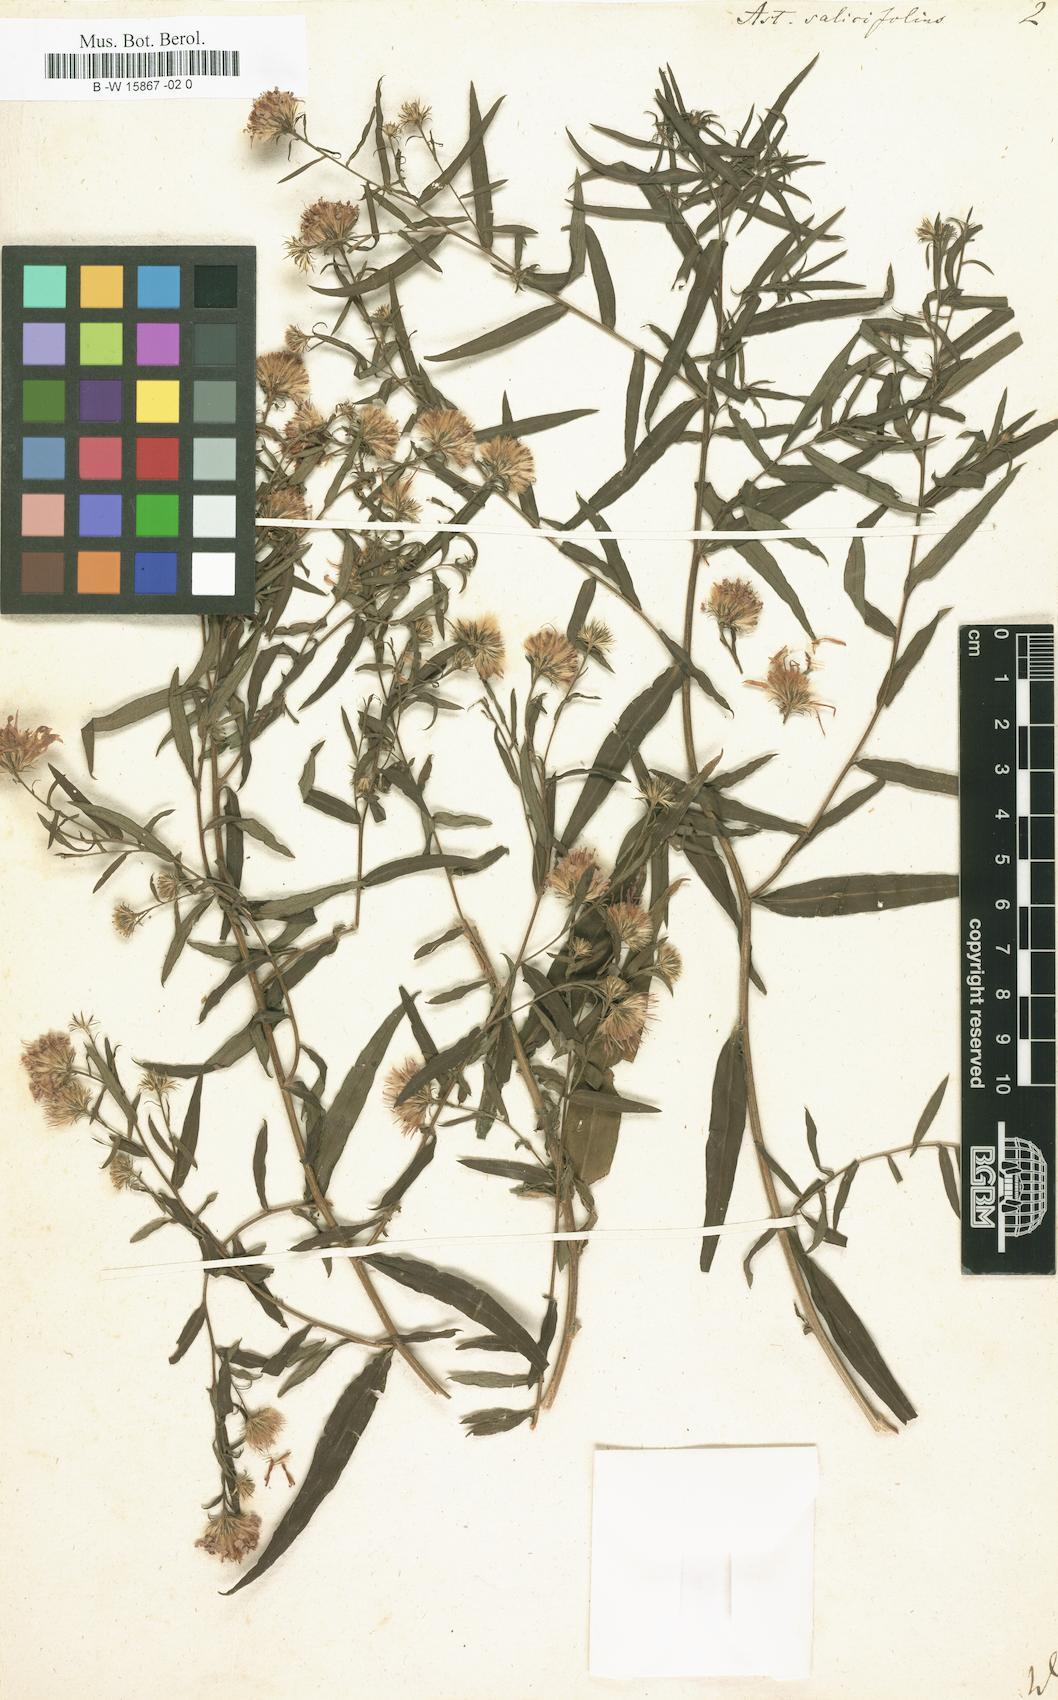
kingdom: Plantae
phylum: Tracheophyta
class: Magnoliopsida
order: Asterales
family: Asteraceae
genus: Aster
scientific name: Aster salicifolius
